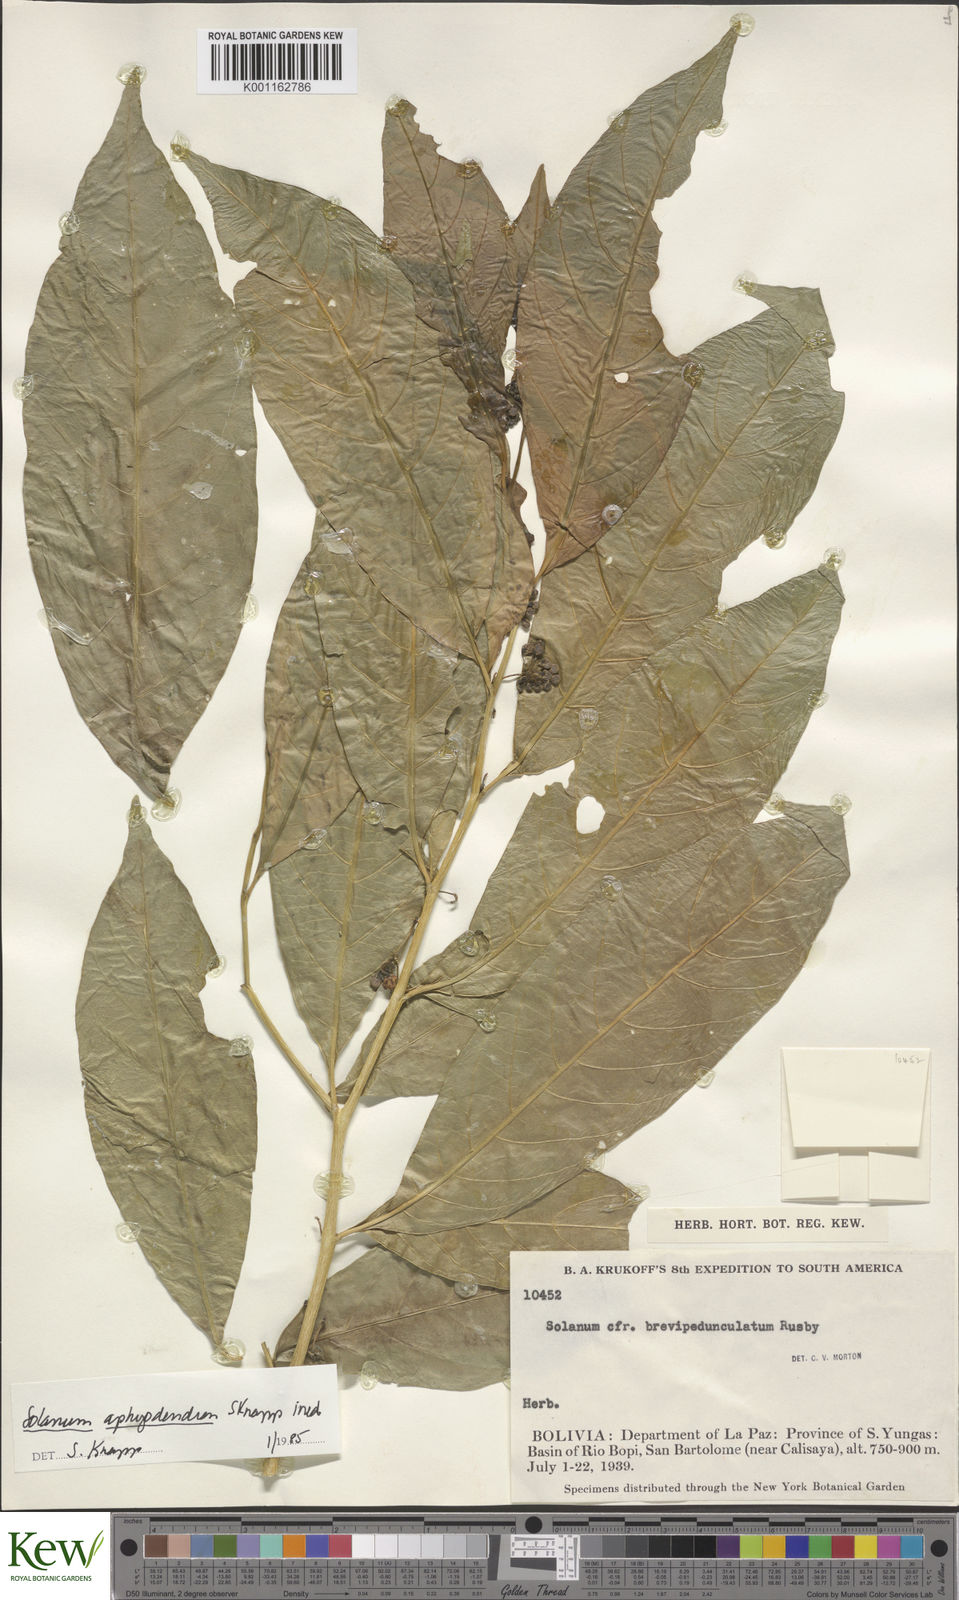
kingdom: Plantae
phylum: Tracheophyta
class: Magnoliopsida
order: Solanales
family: Solanaceae
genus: Solanum
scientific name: Solanum aphyodendron
